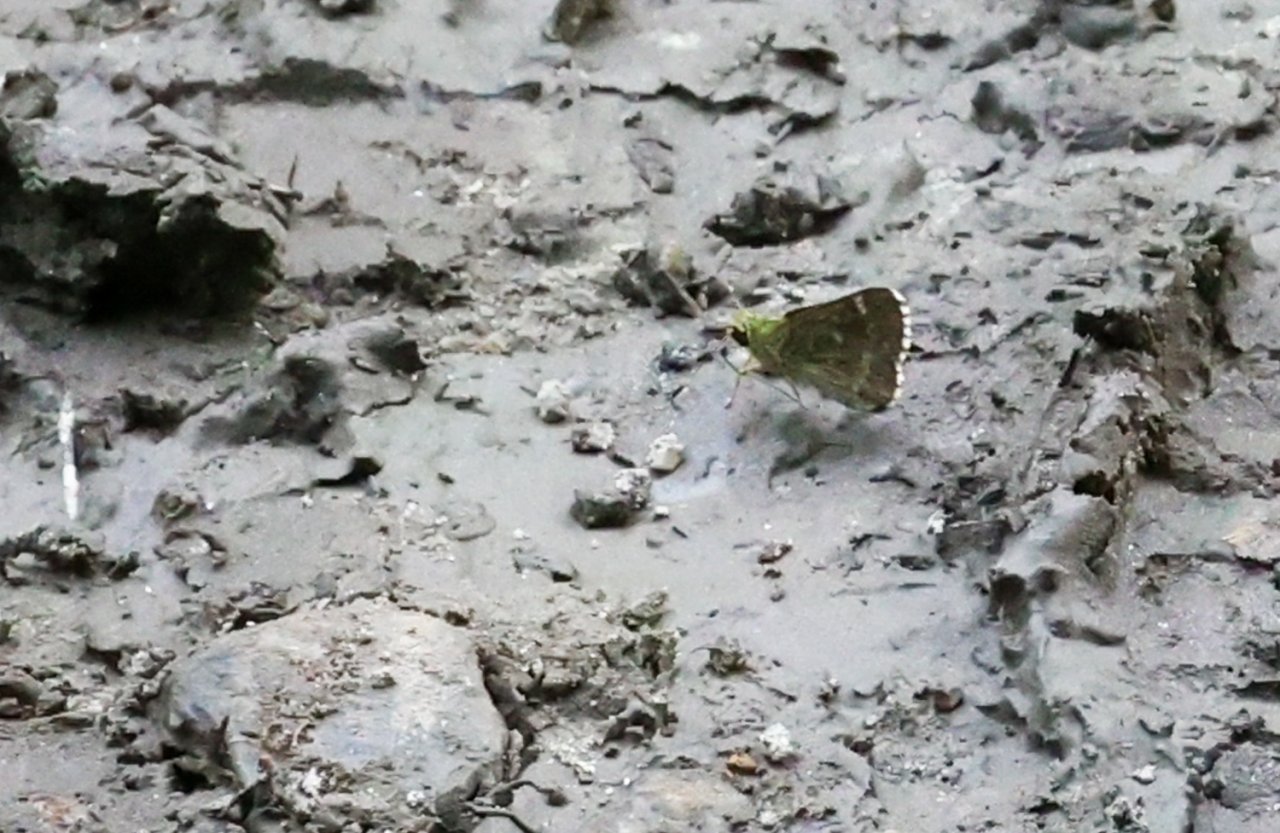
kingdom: Animalia
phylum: Arthropoda
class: Insecta
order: Lepidoptera
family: Hesperiidae
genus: Mastor
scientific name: Mastor hegon
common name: Pepper and Salt Skipper
